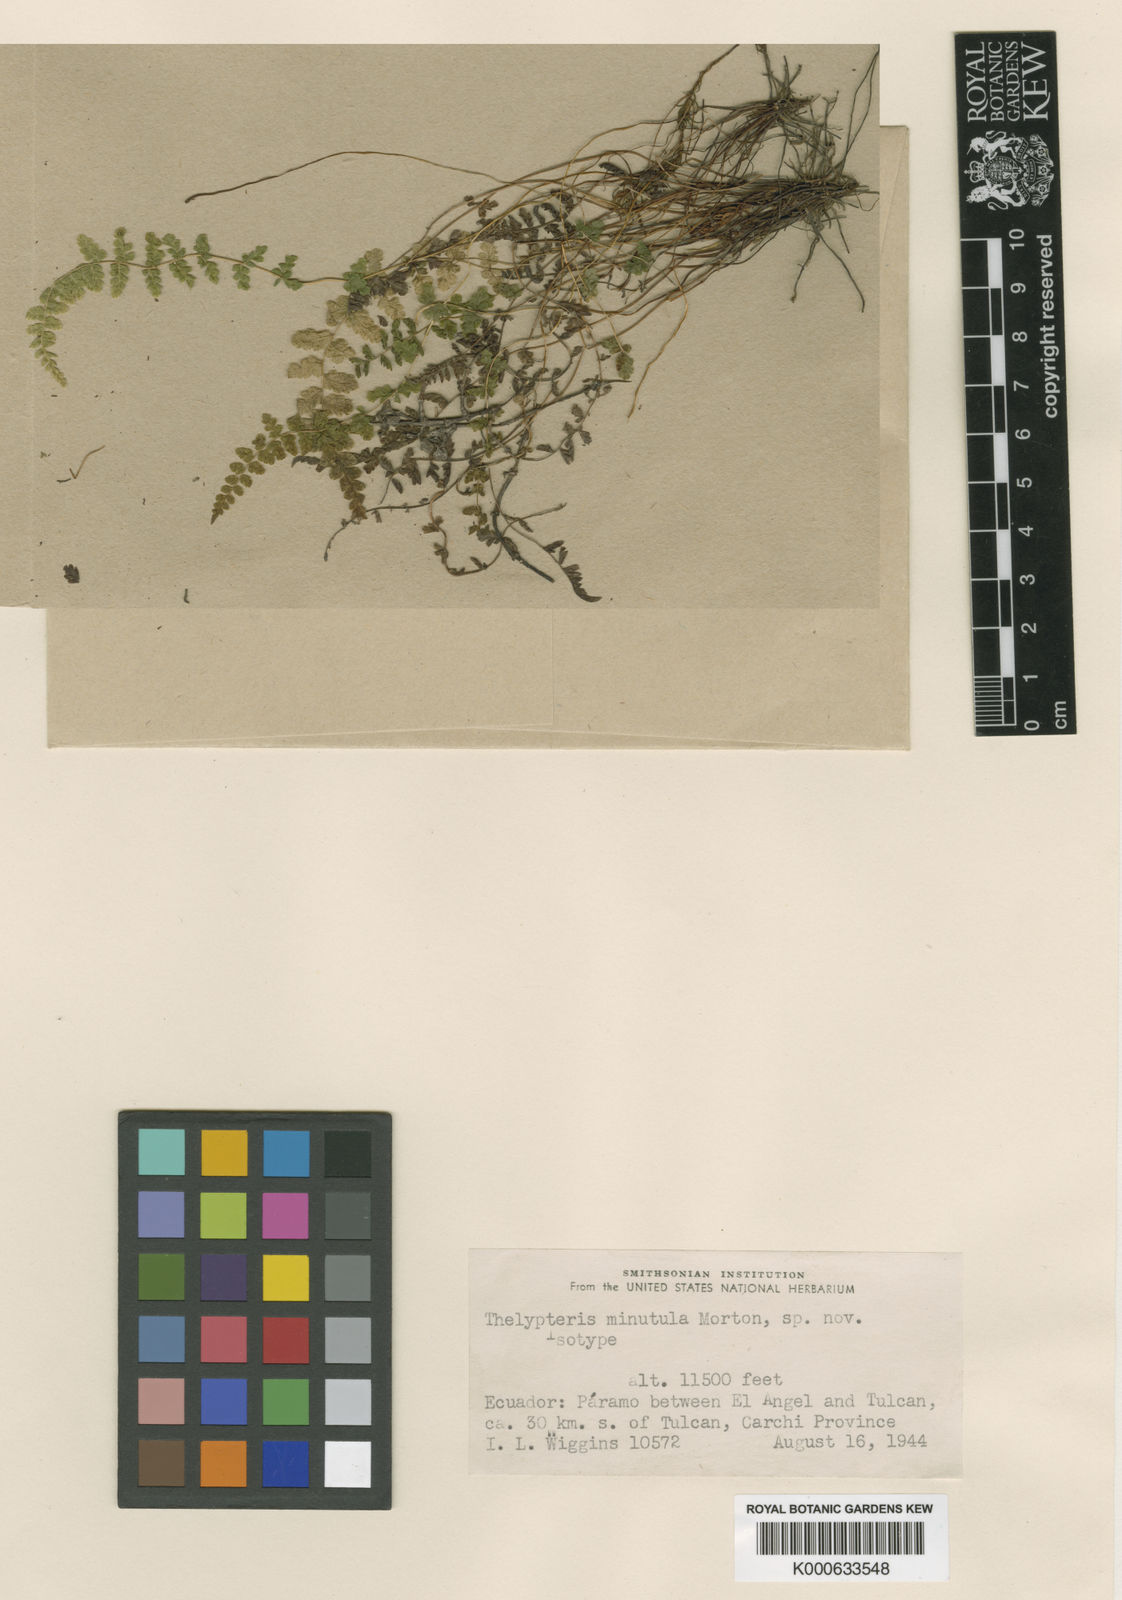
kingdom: Plantae
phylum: Tracheophyta
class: Polypodiopsida
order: Polypodiales
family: Thelypteridaceae
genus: Amauropelta
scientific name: Amauropelta minutula
